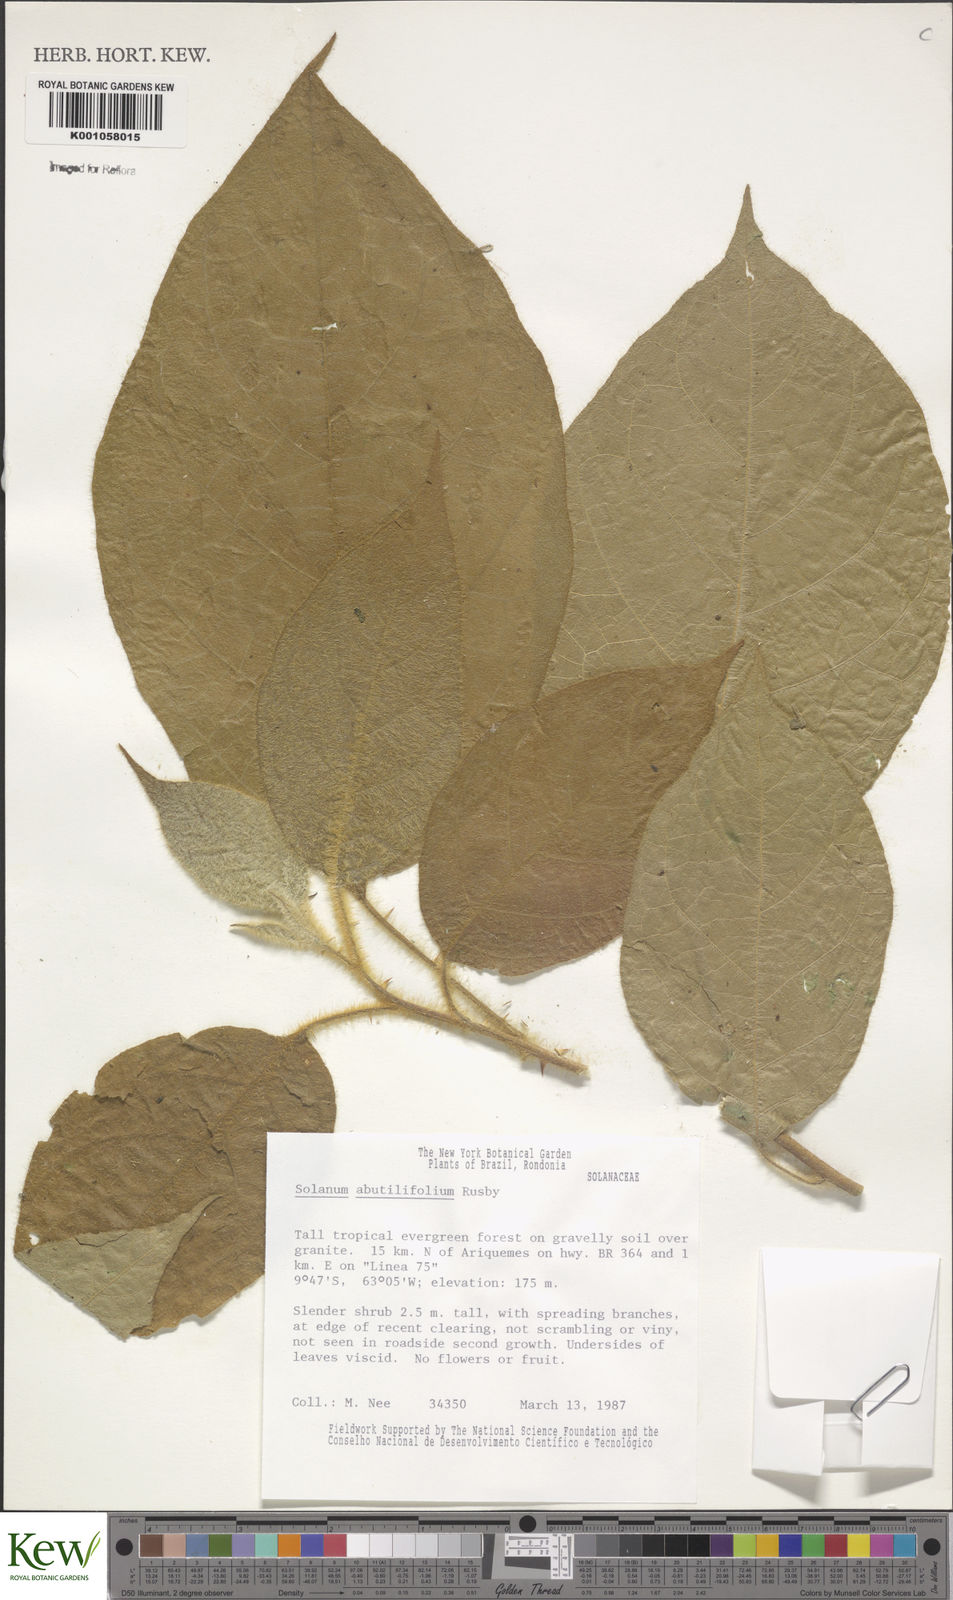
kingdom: Plantae
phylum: Tracheophyta
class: Magnoliopsida
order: Solanales
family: Solanaceae
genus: Solanum
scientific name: Solanum abutilifolium
